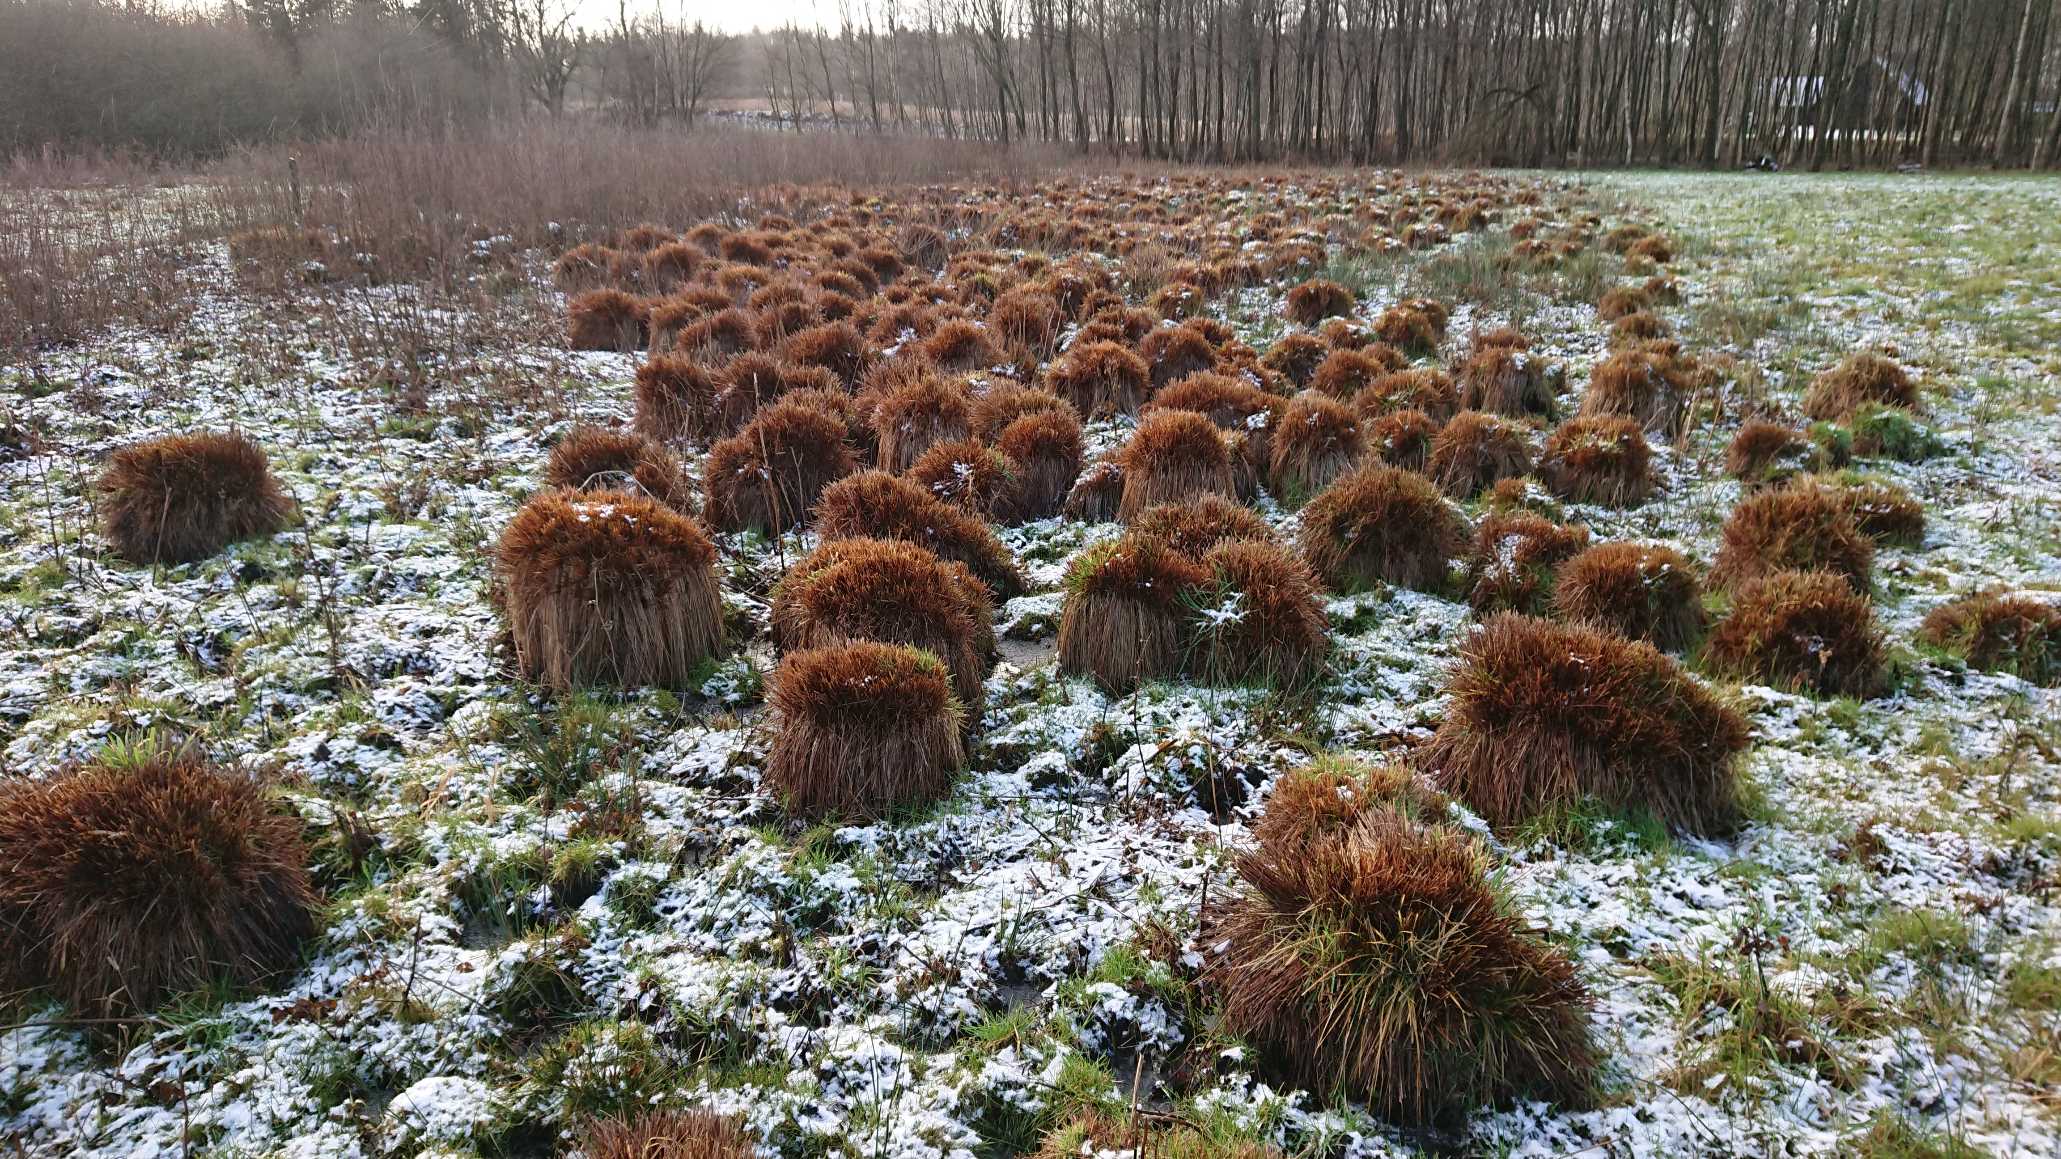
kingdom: Plantae
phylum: Tracheophyta
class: Liliopsida
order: Poales
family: Cyperaceae
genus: Carex
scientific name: Carex cespitosa
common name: Tue-star
